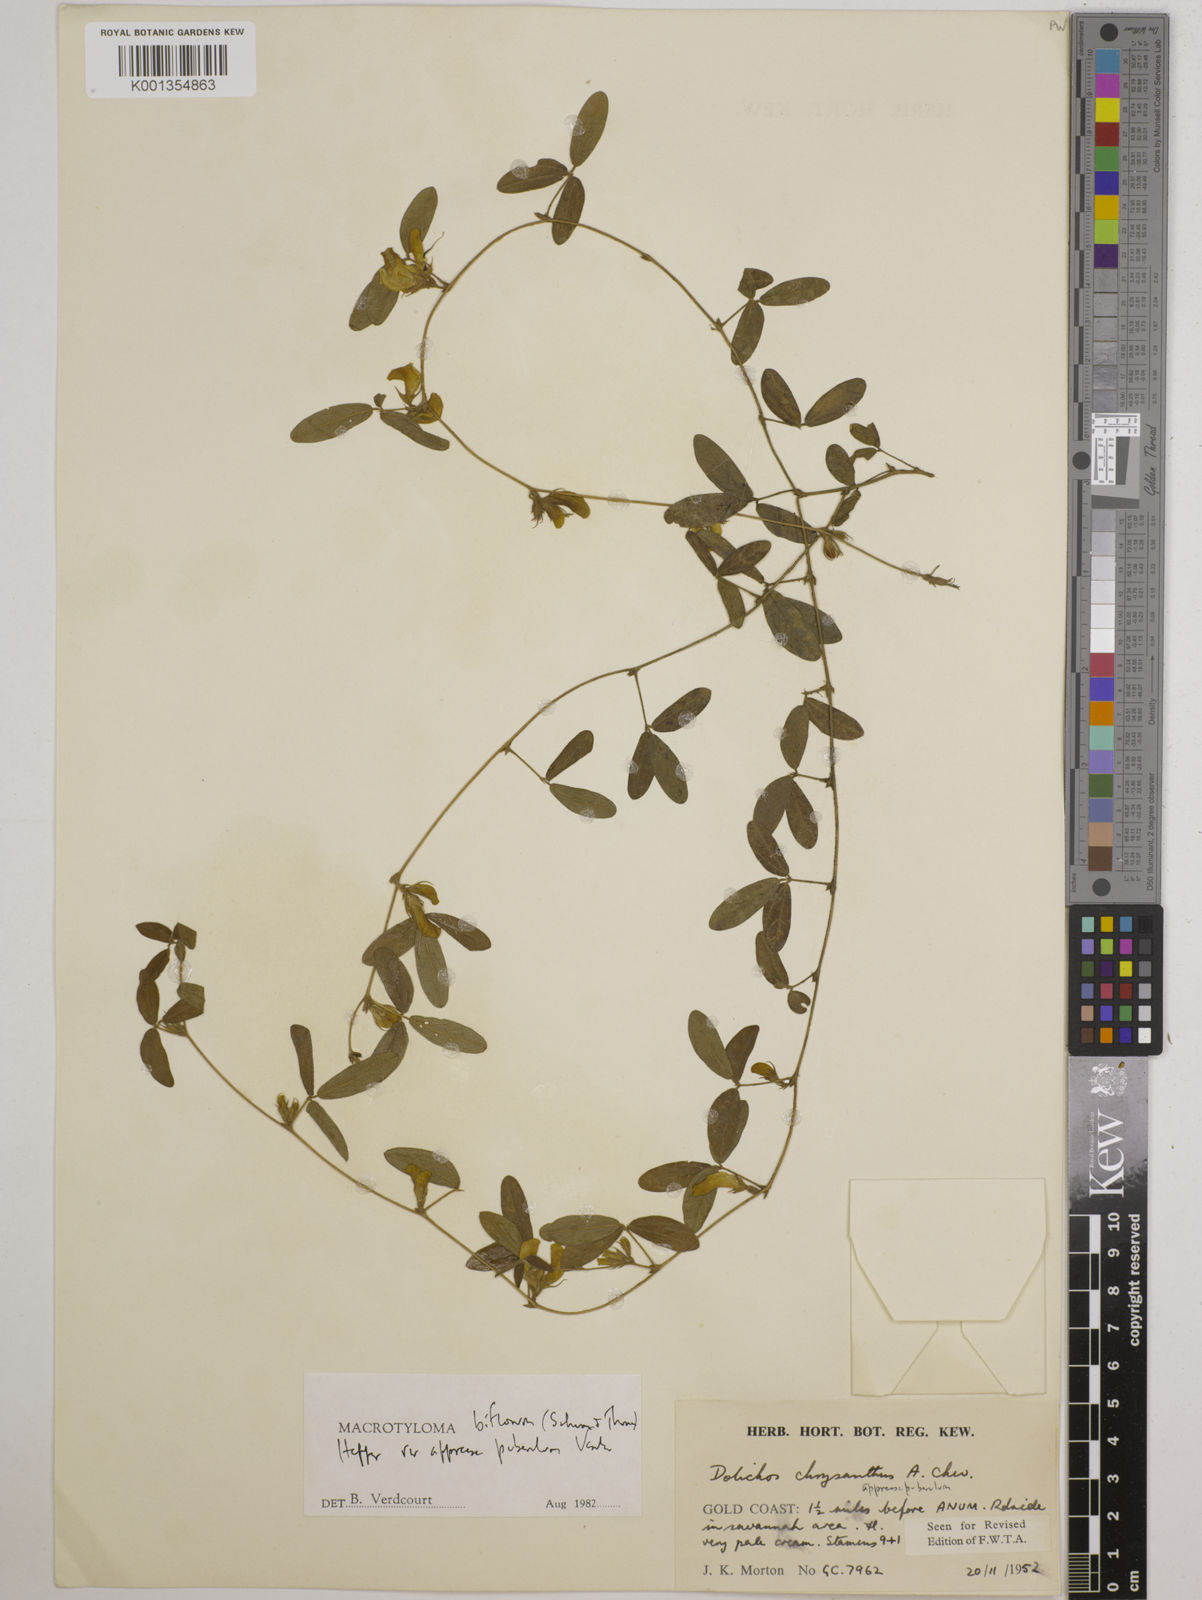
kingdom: Plantae
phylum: Tracheophyta
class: Magnoliopsida
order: Fabales
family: Fabaceae
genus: Macrotyloma
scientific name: Macrotyloma biflorum
